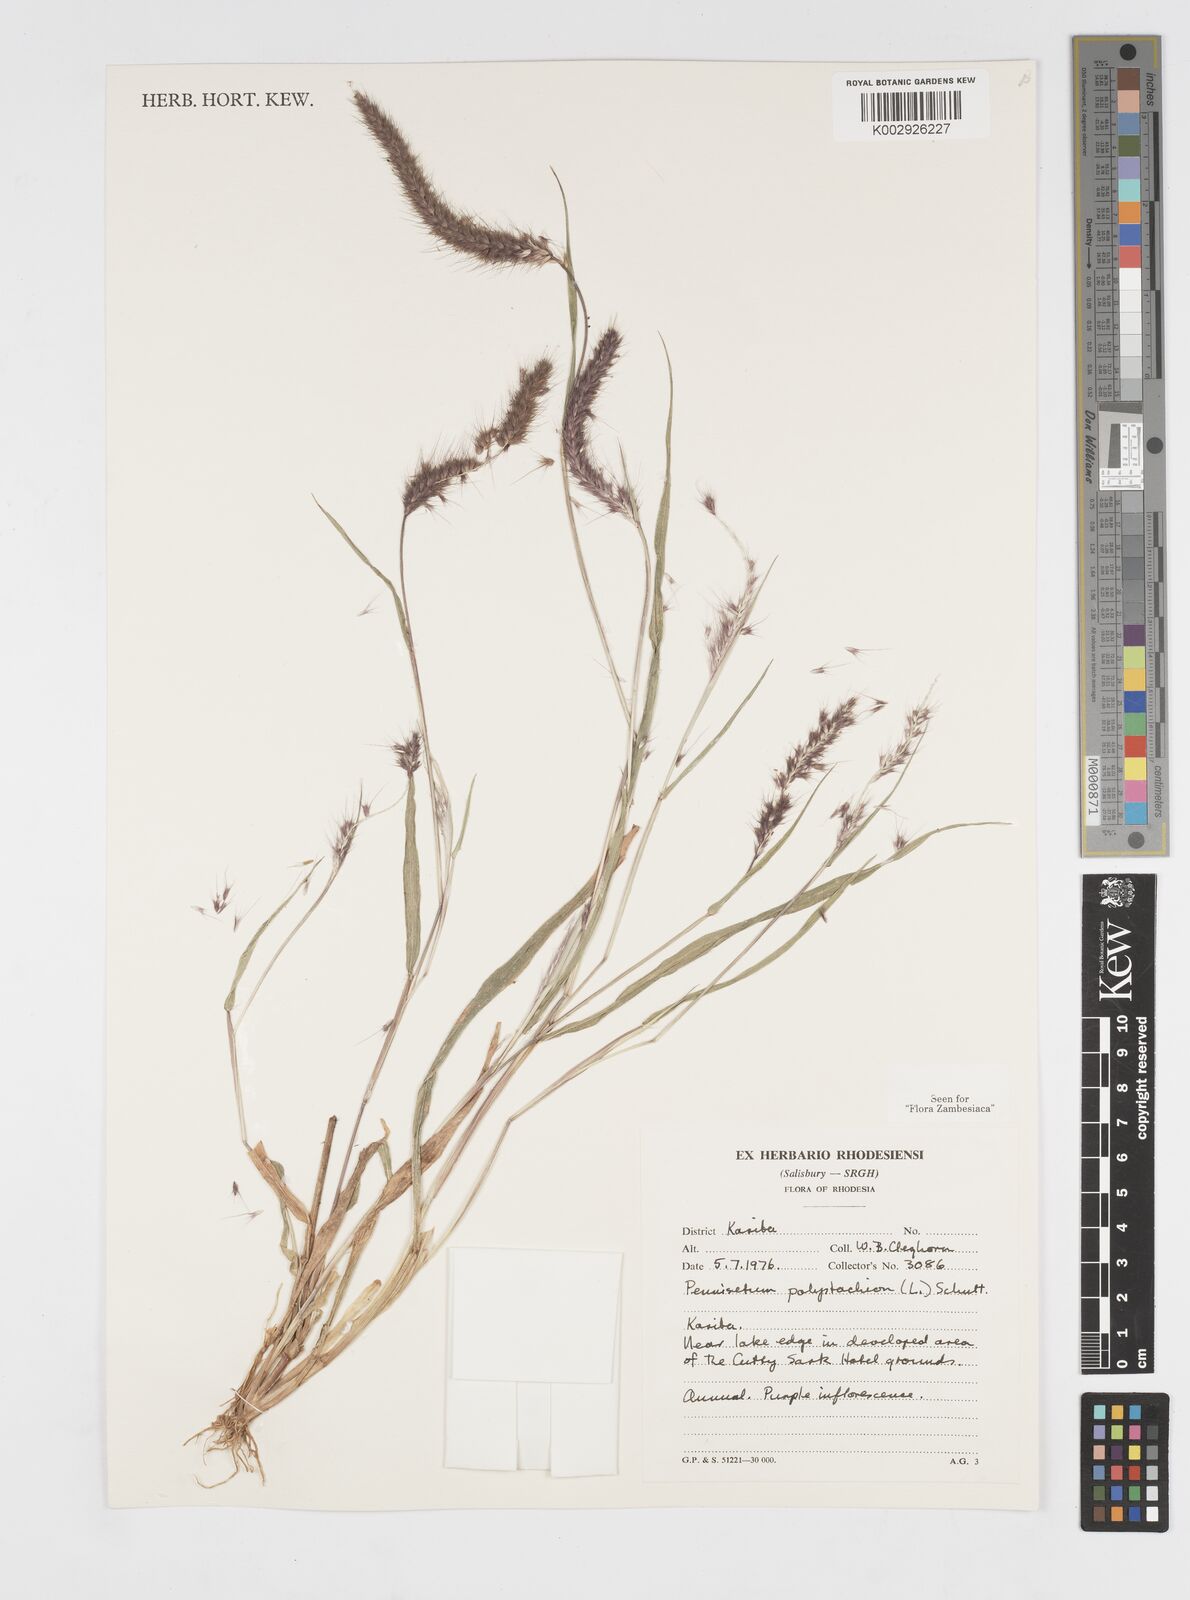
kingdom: Plantae
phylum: Tracheophyta
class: Liliopsida
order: Poales
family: Poaceae
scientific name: Poaceae
